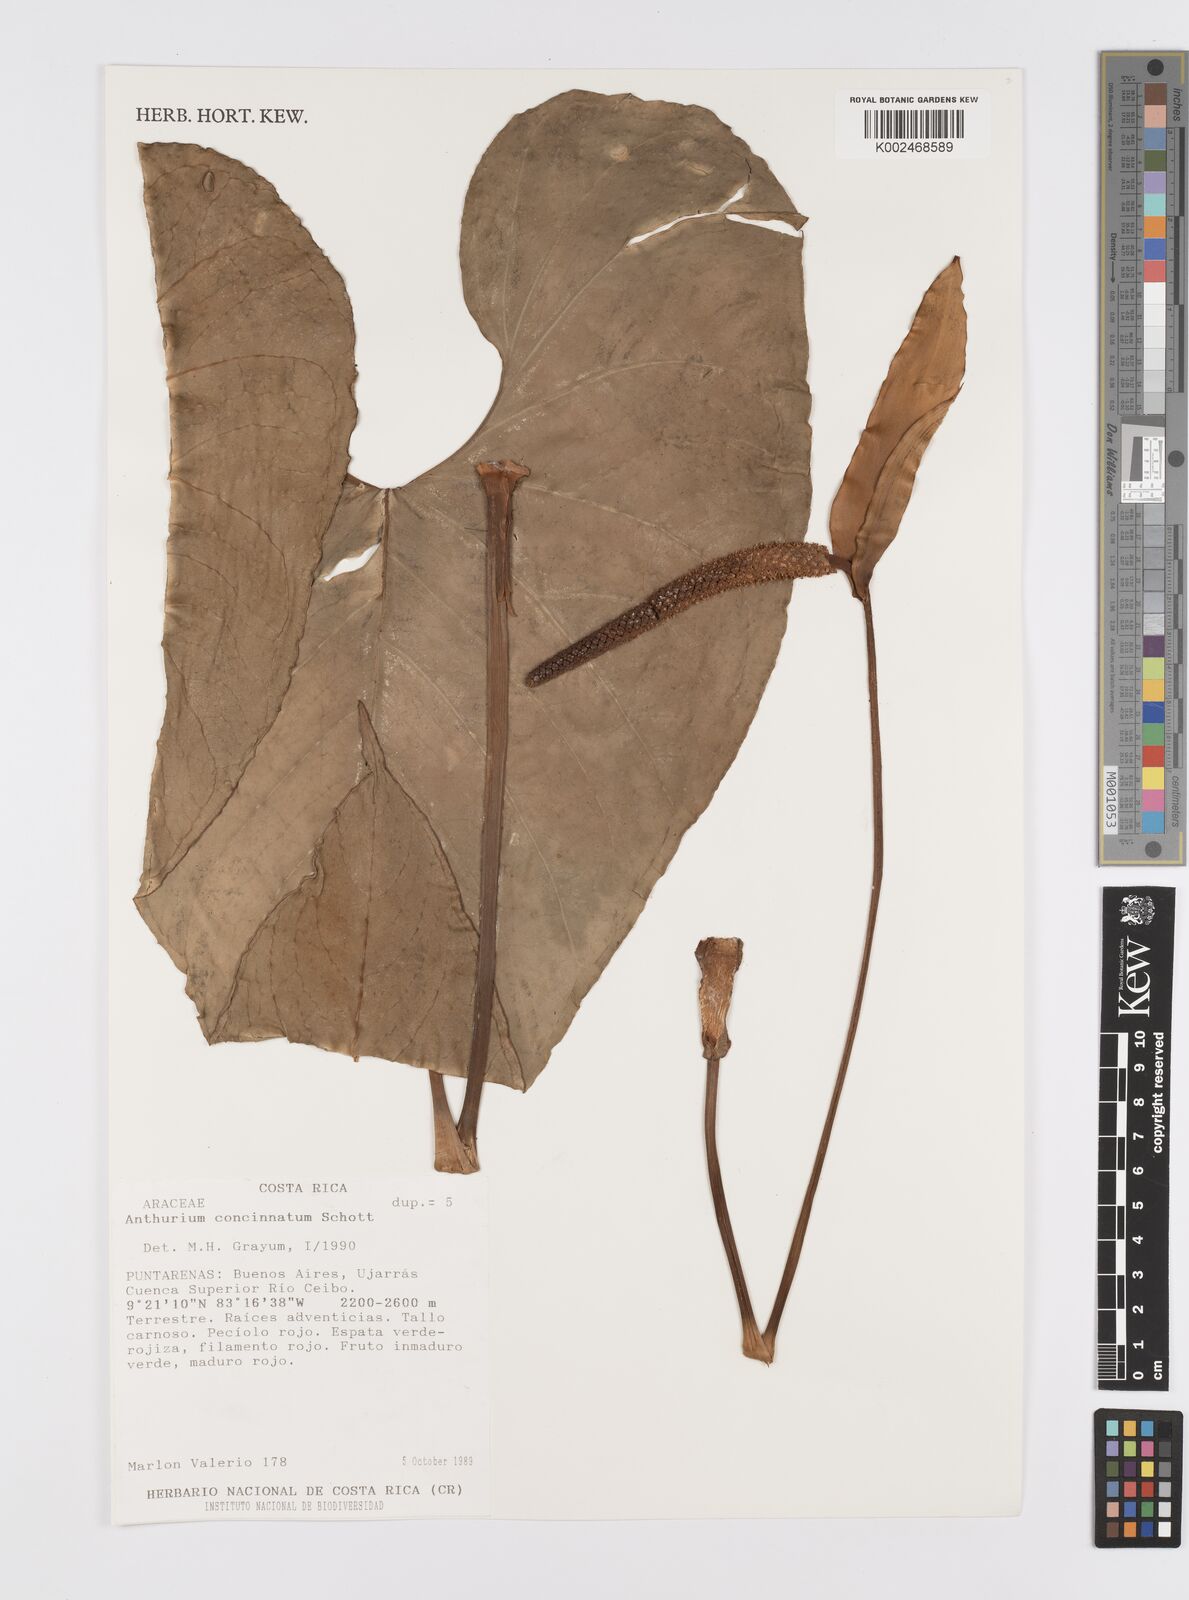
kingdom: Plantae
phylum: Tracheophyta
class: Liliopsida
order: Alismatales
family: Araceae
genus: Anthurium
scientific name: Anthurium concinnatum
